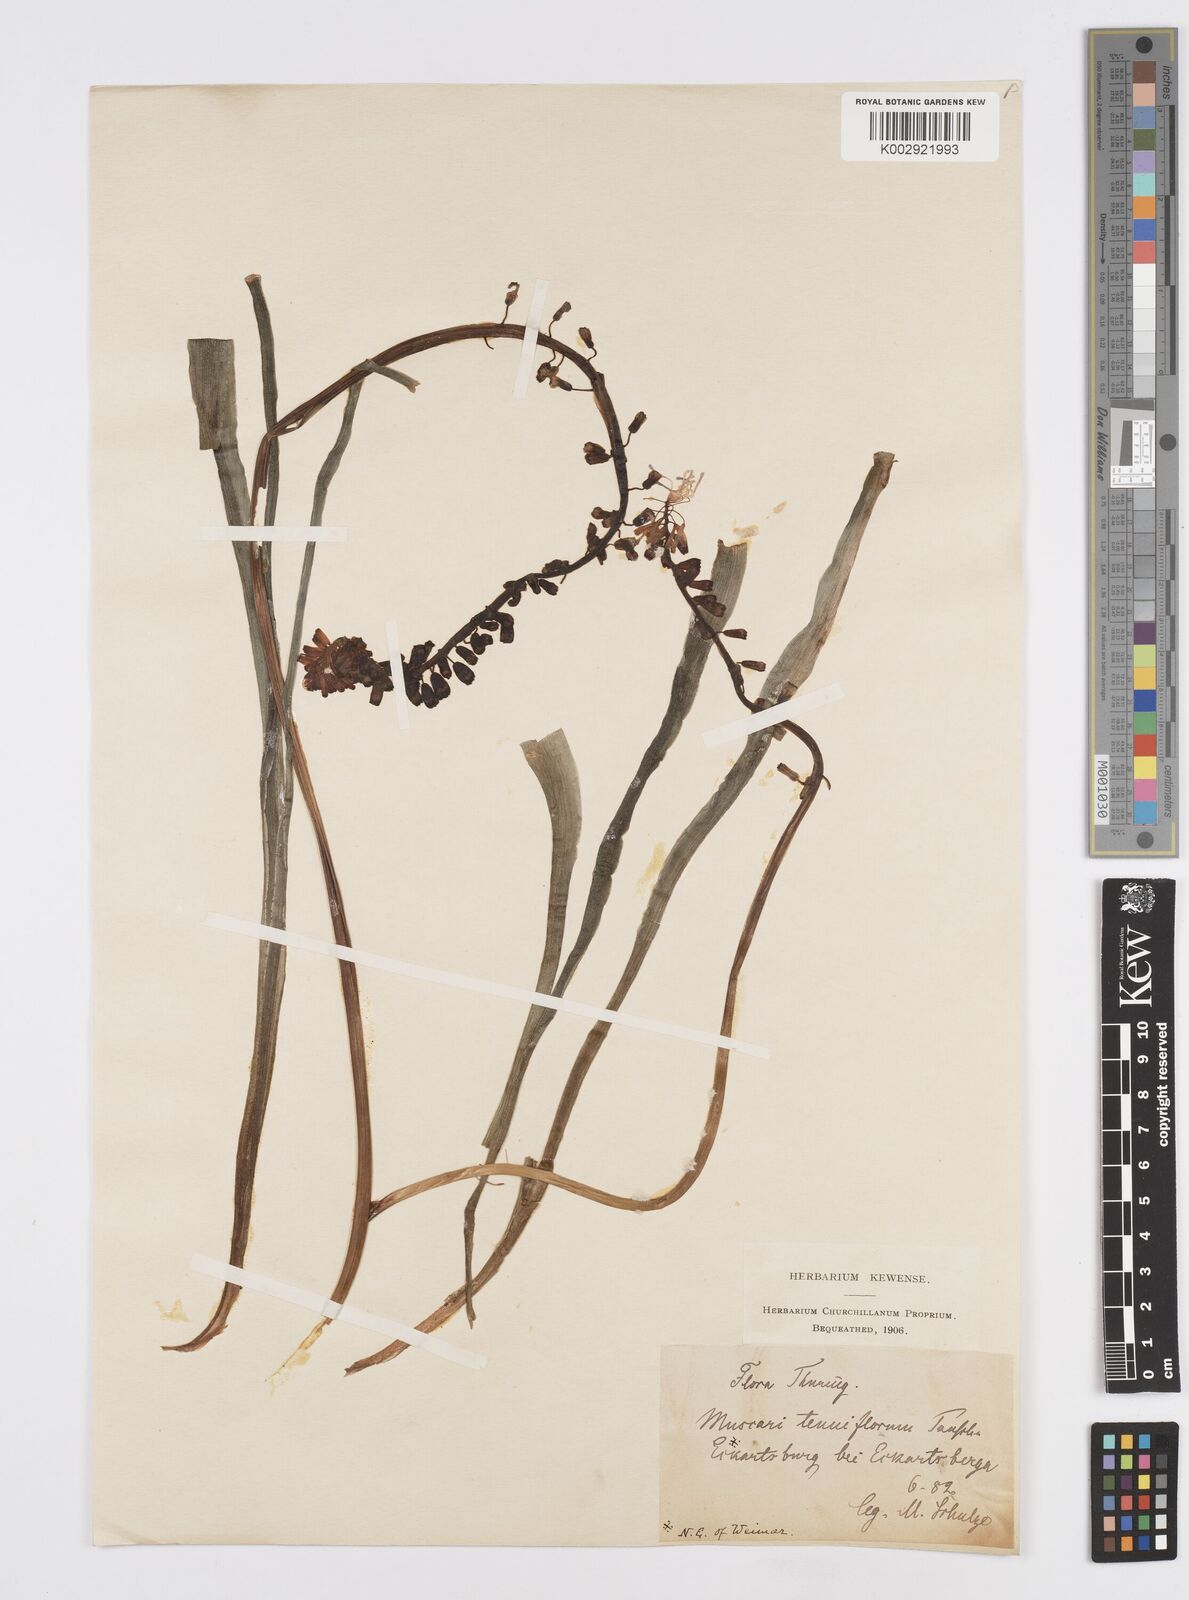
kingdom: Plantae
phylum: Tracheophyta
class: Liliopsida
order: Asparagales
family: Asparagaceae
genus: Muscari
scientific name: Muscari tenuiflorum
